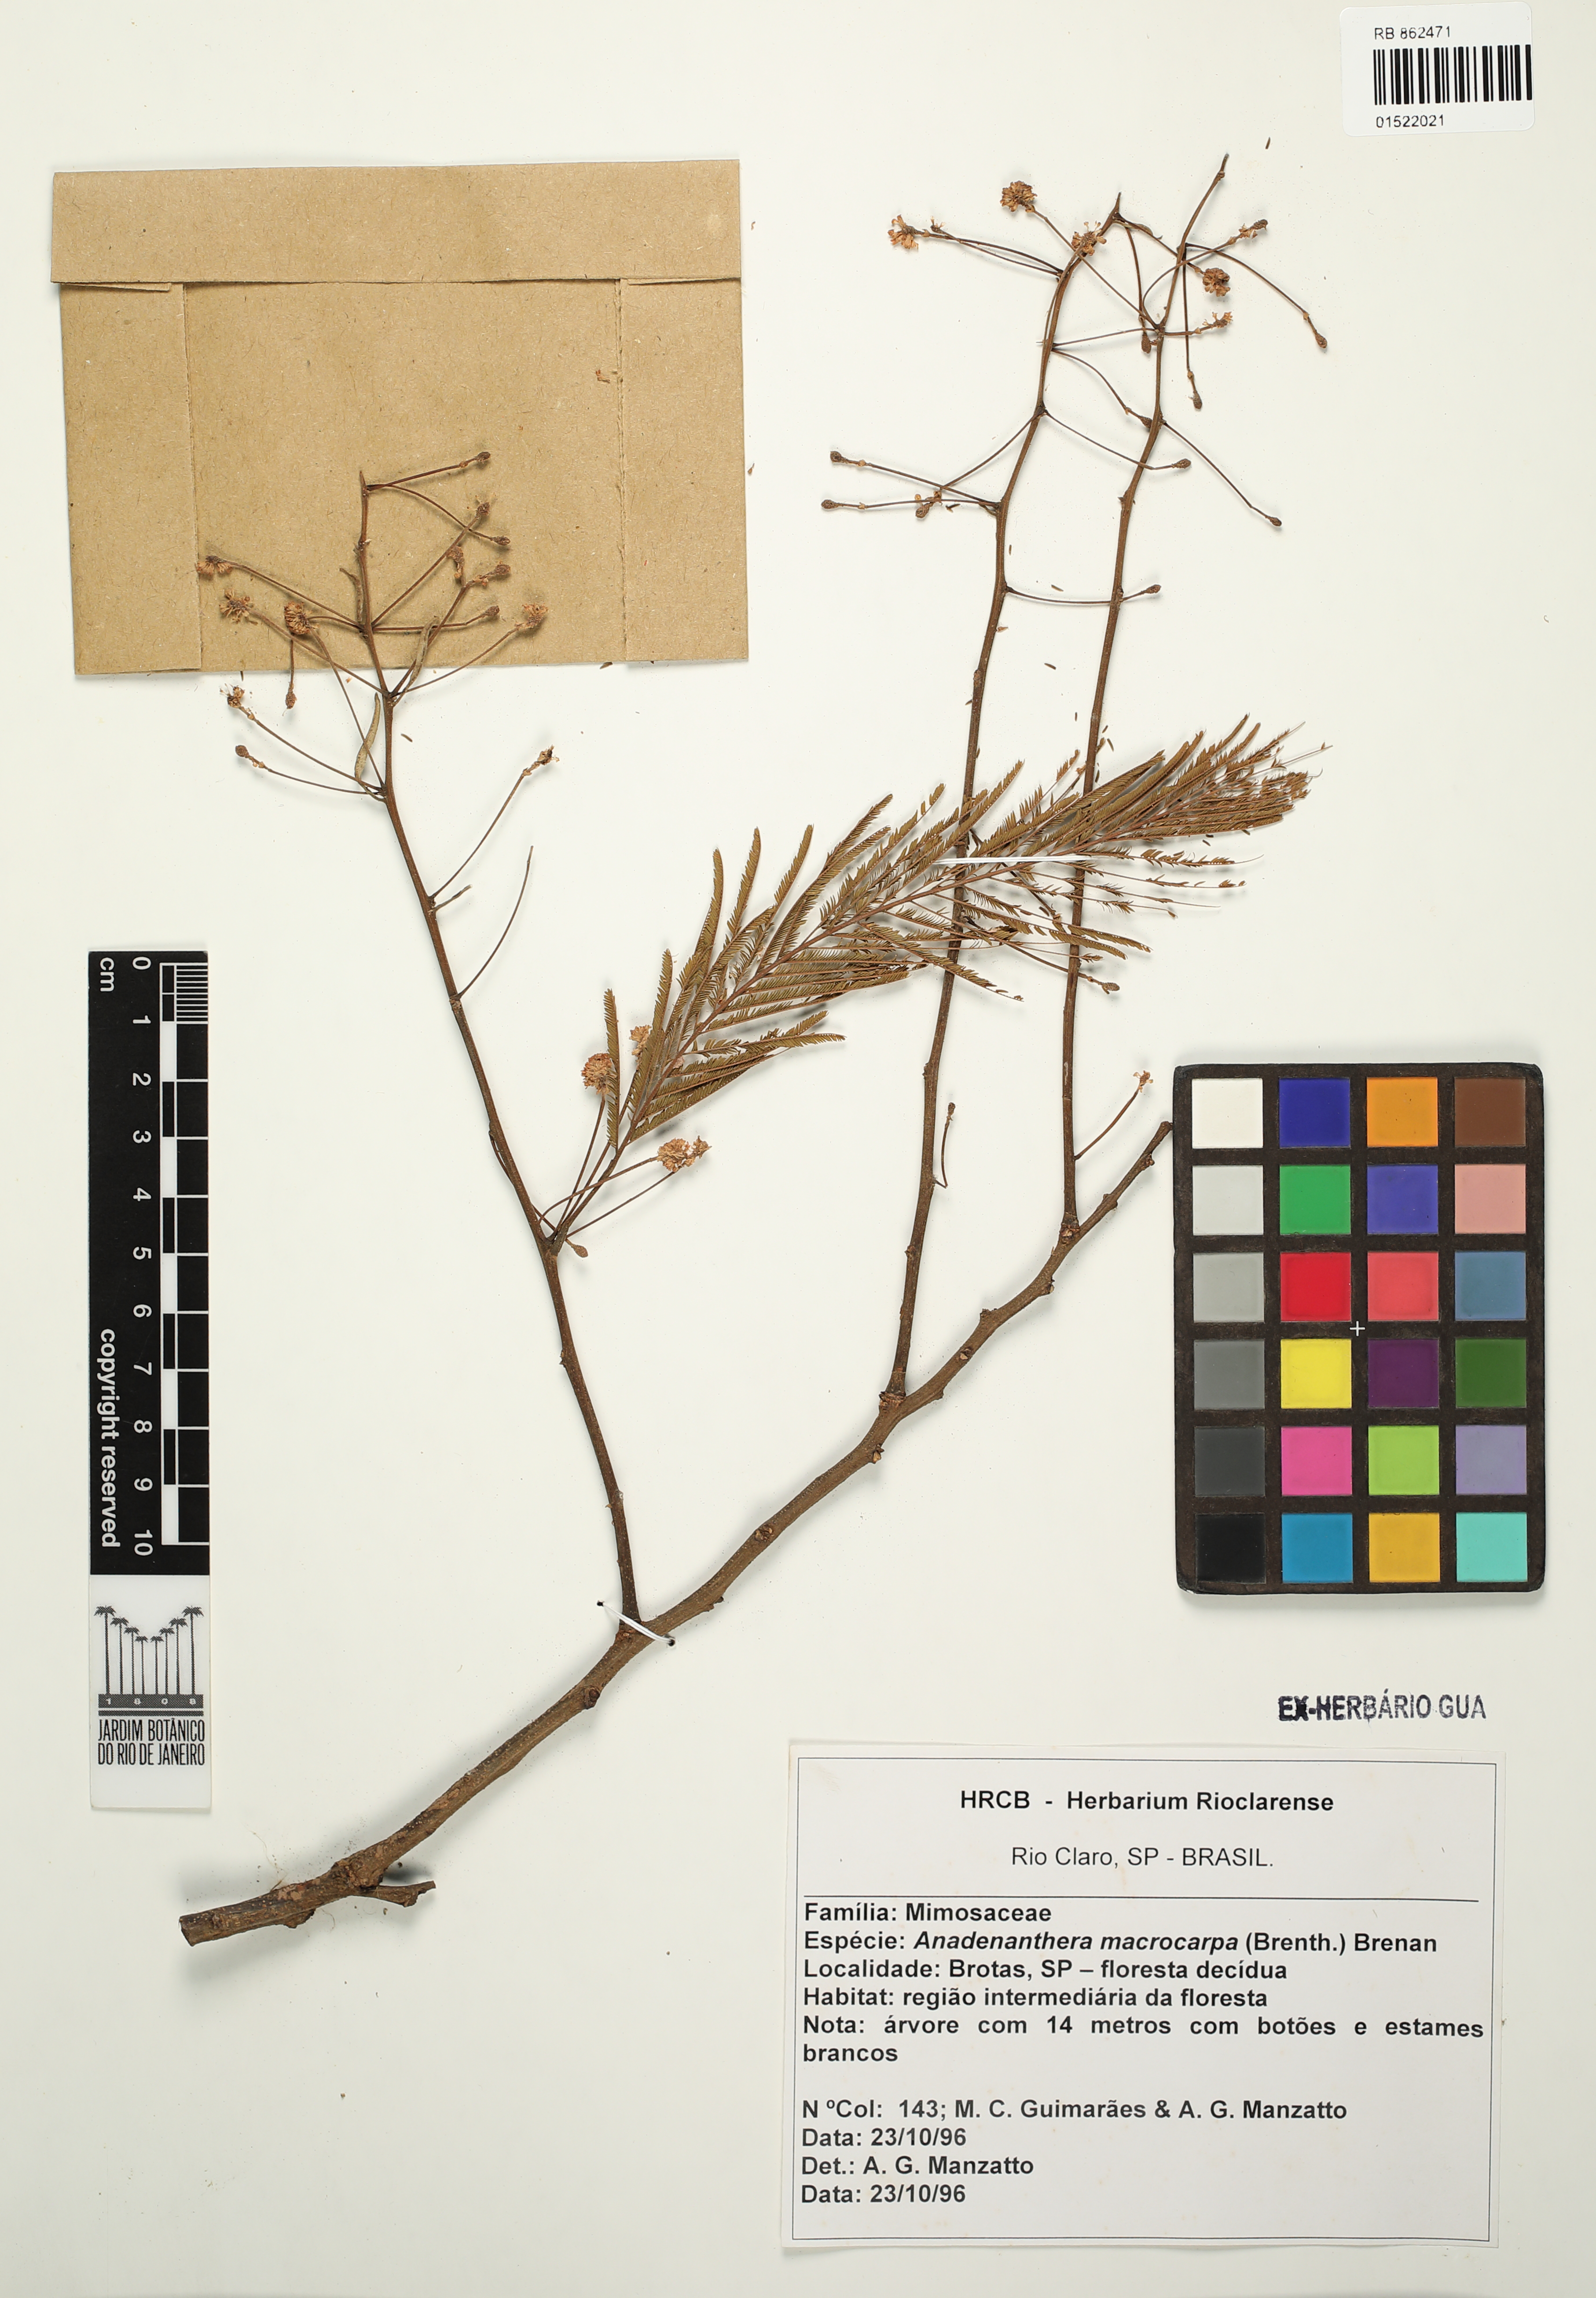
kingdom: Plantae
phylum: Tracheophyta
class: Magnoliopsida
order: Fabales
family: Fabaceae
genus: Anadenanthera
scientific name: Anadenanthera colubrina
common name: Curupay
